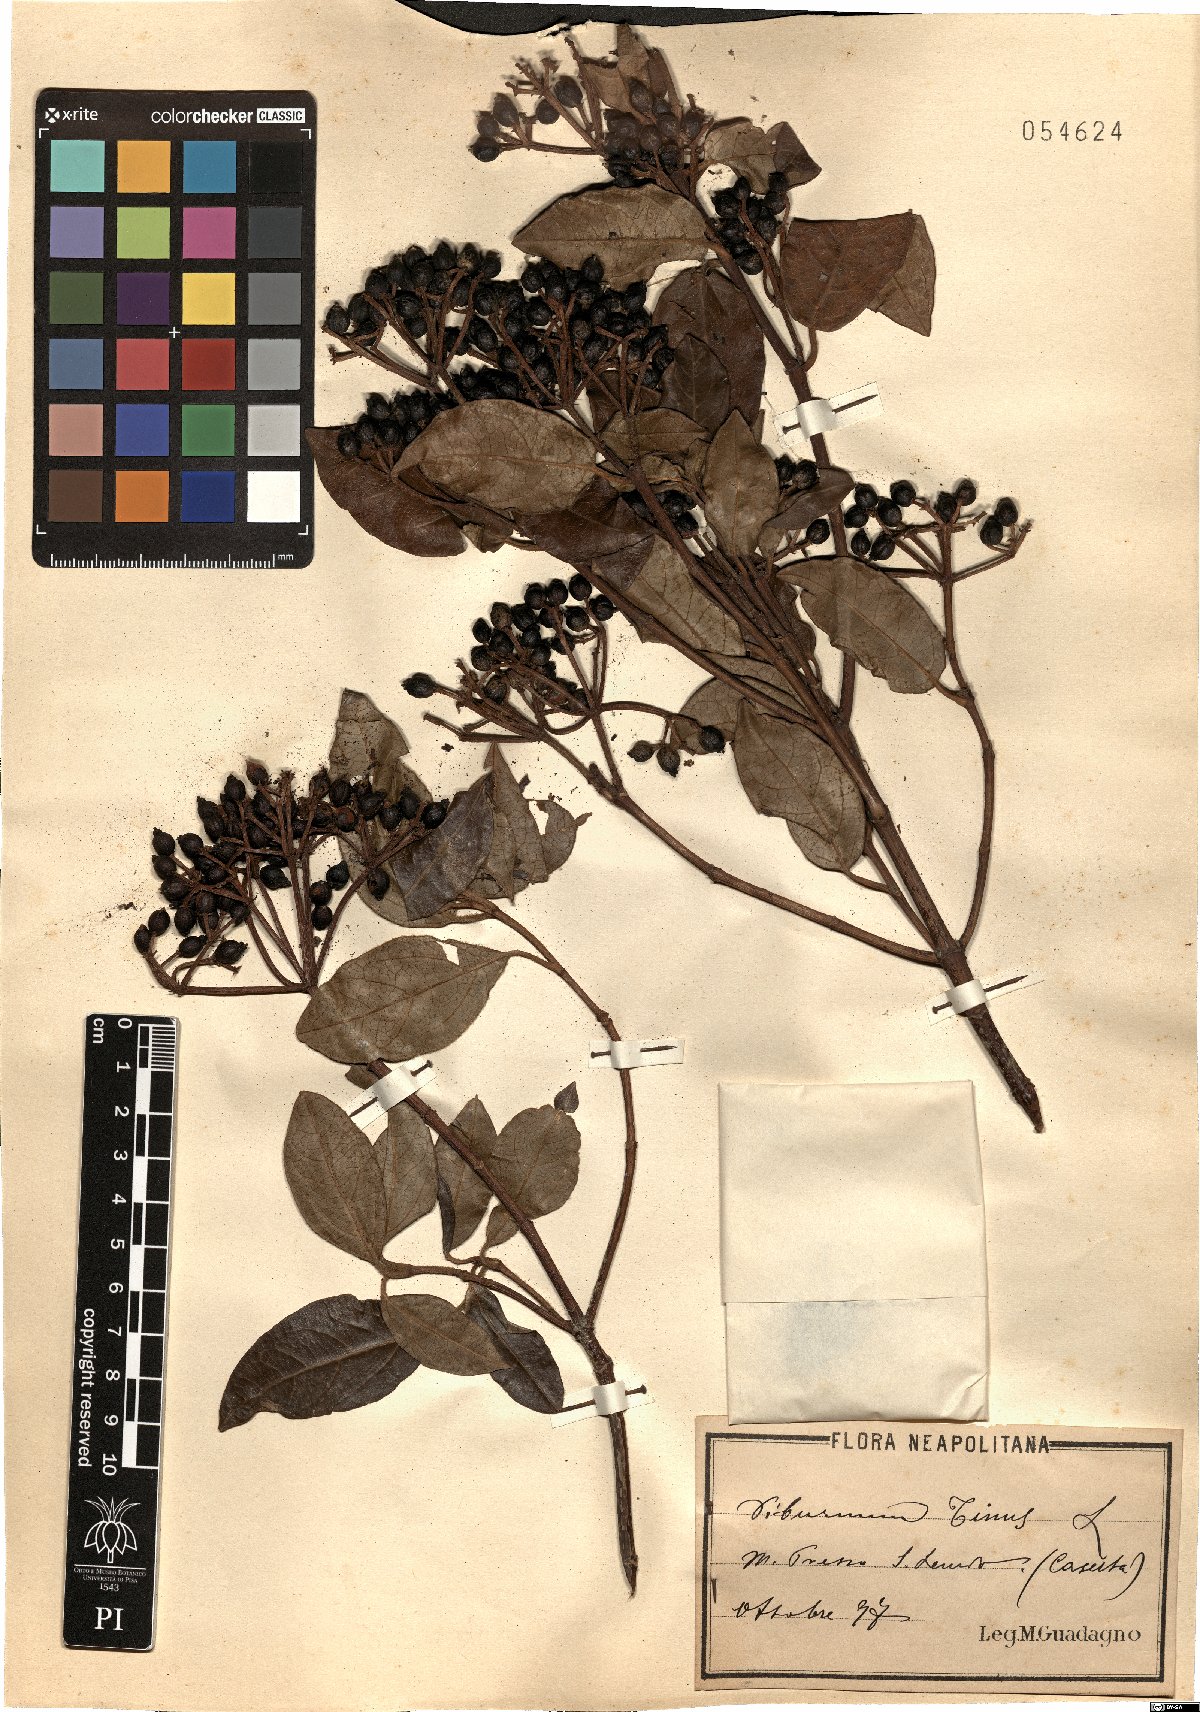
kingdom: Plantae
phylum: Tracheophyta
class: Magnoliopsida
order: Dipsacales
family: Viburnaceae
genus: Viburnum
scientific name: Viburnum tinus
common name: Laurustinus
